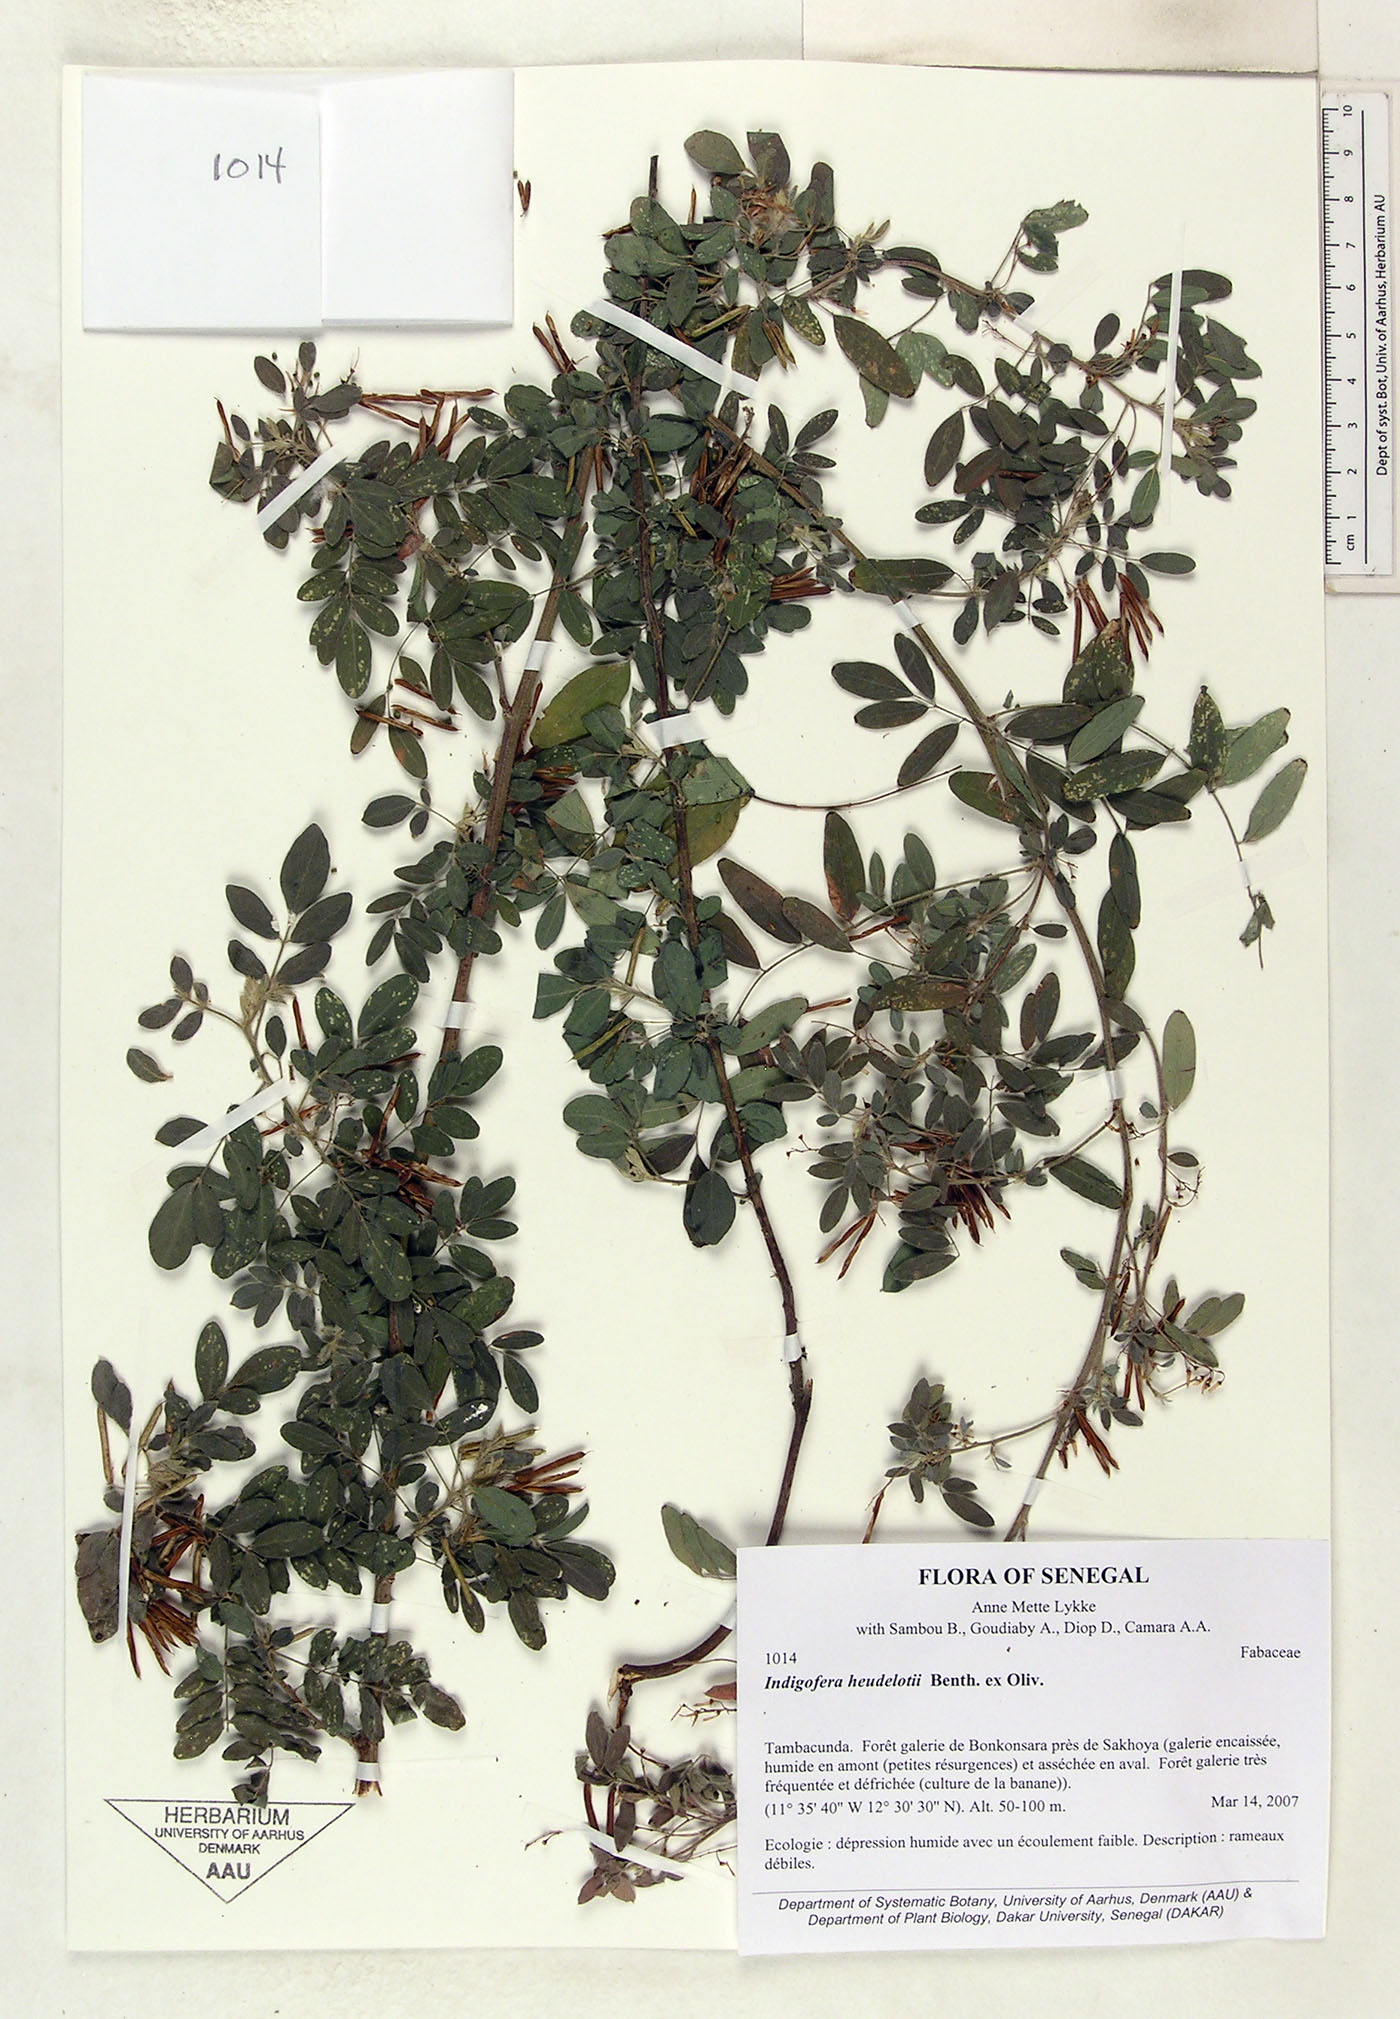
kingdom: Plantae
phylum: Tracheophyta
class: Magnoliopsida
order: Fabales
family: Fabaceae
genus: Indigofera
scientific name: Indigofera heudelotii
